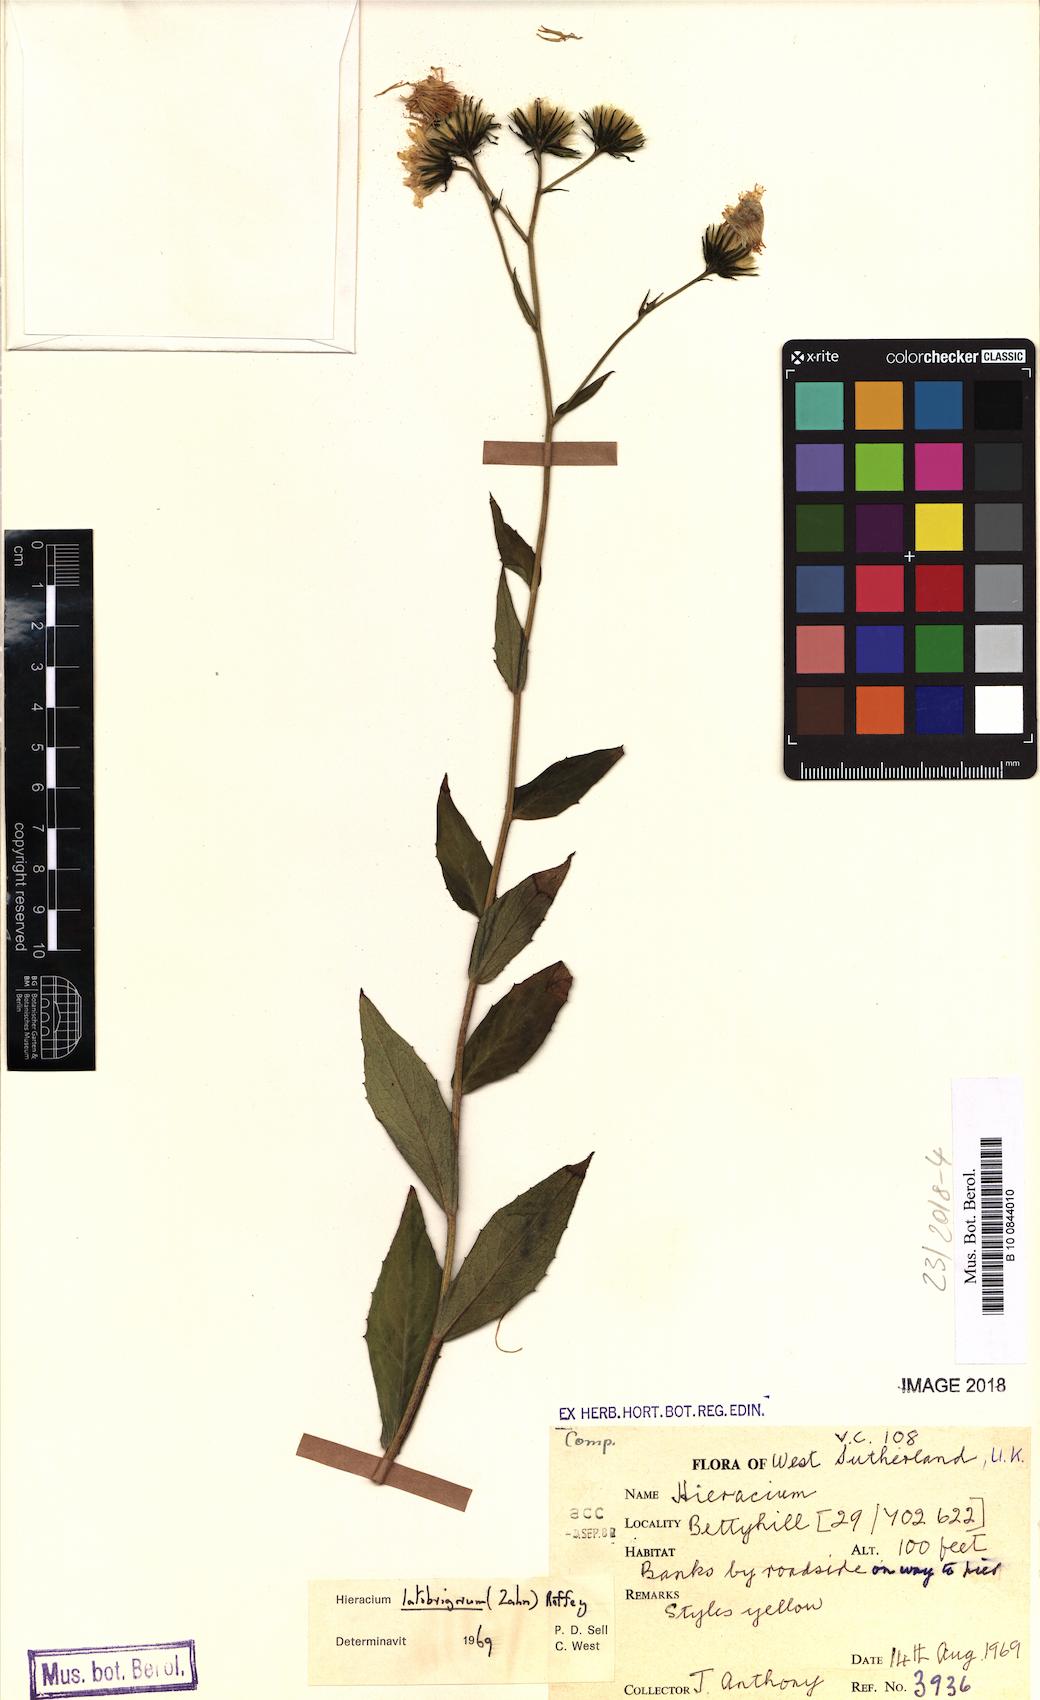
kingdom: Plantae
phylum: Tracheophyta
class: Magnoliopsida
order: Asterales
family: Asteraceae
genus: Hieracium
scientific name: Hieracium inuloides
